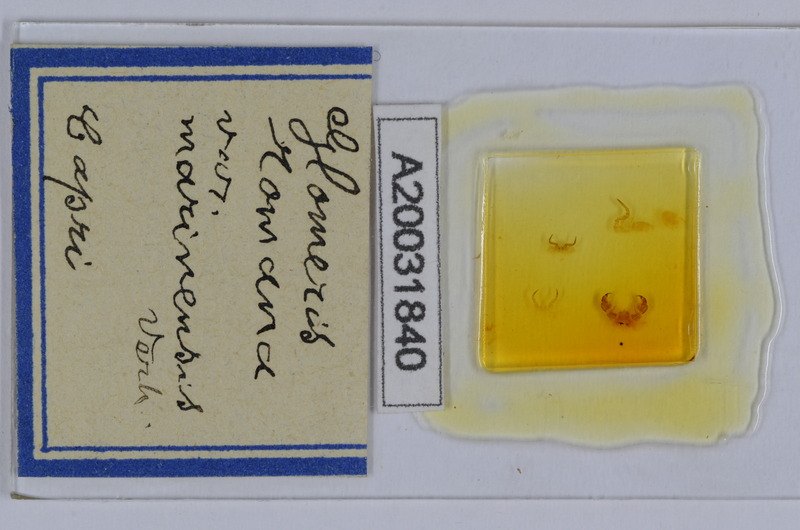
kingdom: Animalia
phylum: Arthropoda
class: Diplopoda
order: Glomerida
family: Glomeridae
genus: Glomeris
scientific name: Glomeris romana
